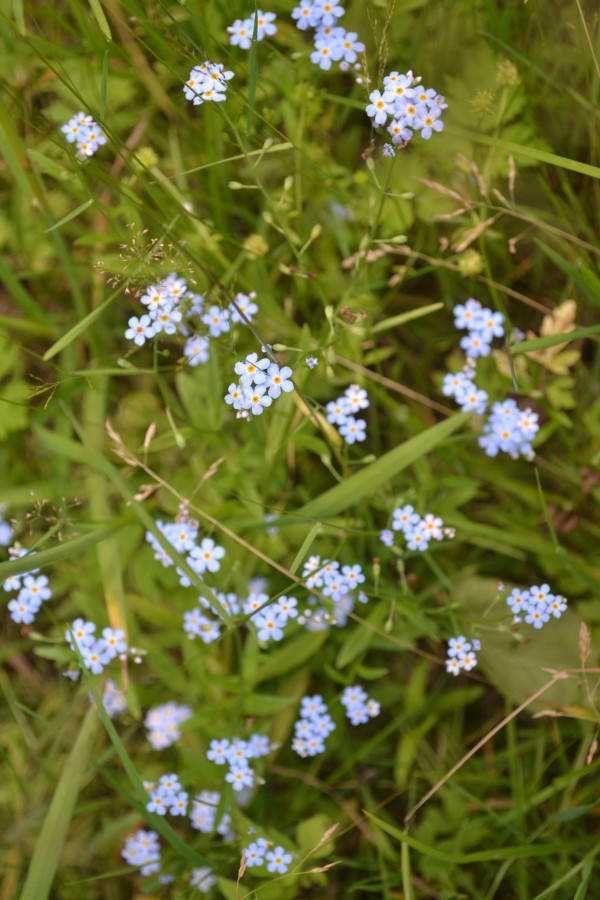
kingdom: Plantae
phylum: Tracheophyta
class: Magnoliopsida
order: Boraginales
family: Boraginaceae
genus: Myosotis
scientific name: Myosotis scorpioides
